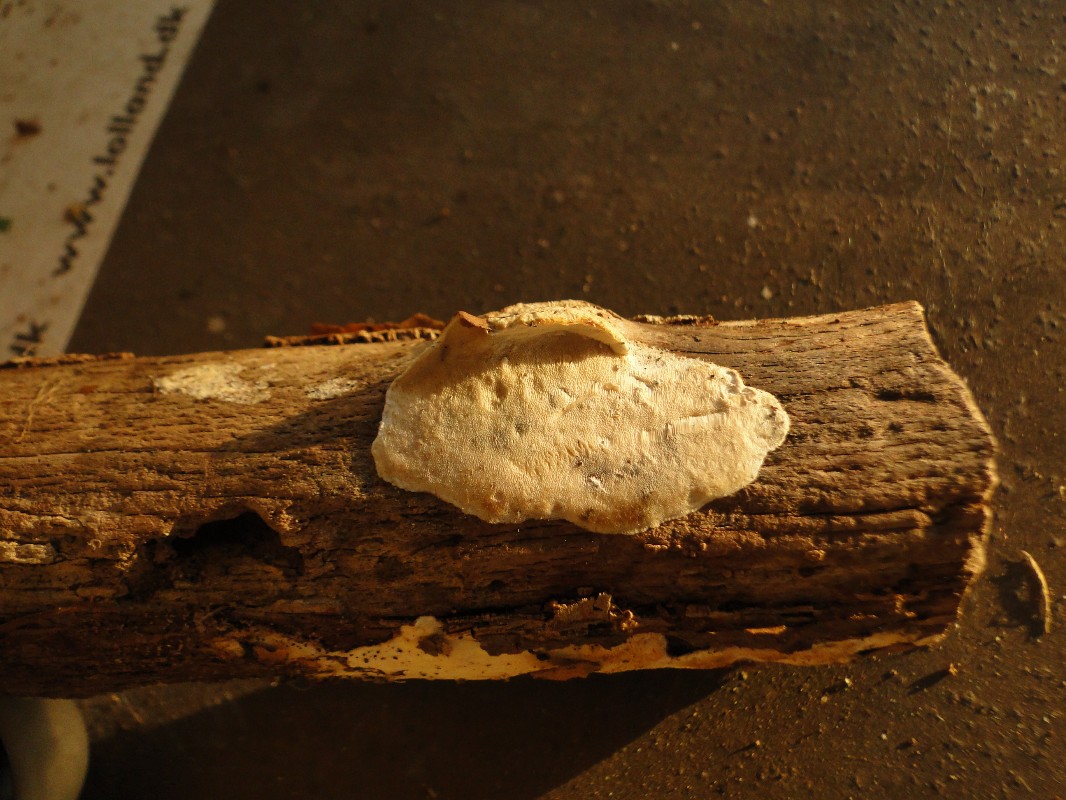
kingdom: Fungi
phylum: Basidiomycota
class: Agaricomycetes
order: Polyporales
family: Incrustoporiaceae
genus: Skeletocutis
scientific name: Skeletocutis nemoralis
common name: stor krystalporesvamp
